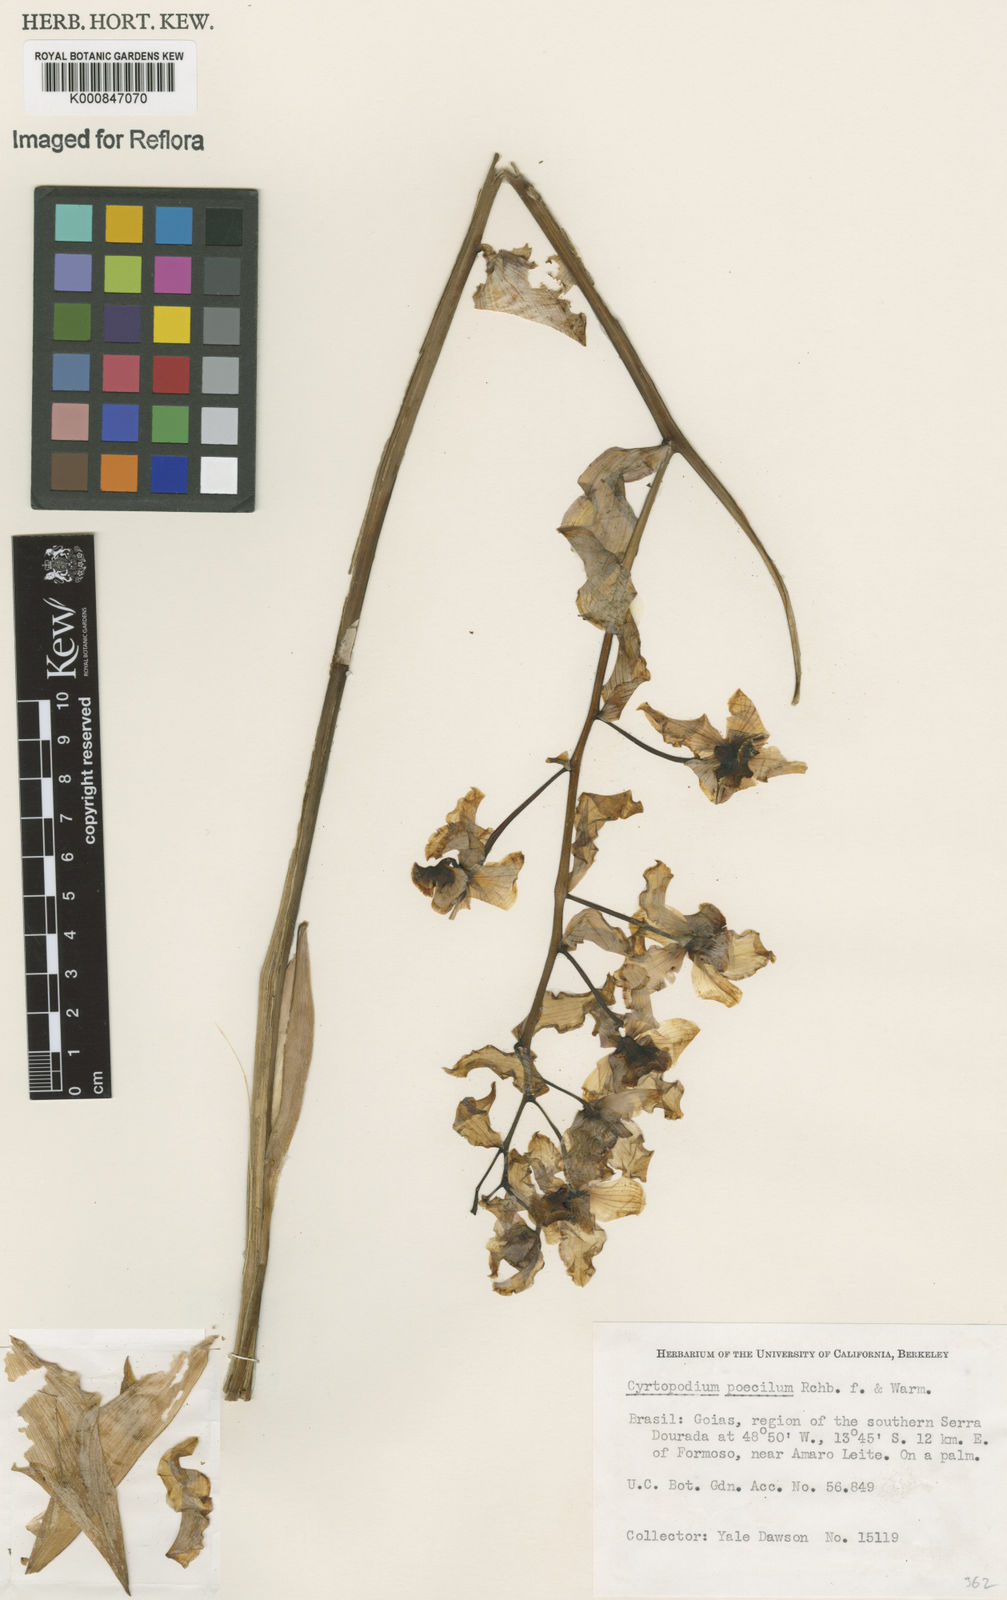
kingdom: Plantae
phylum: Tracheophyta
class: Liliopsida
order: Asparagales
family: Orchidaceae
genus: Cyrtopodium
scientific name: Cyrtopodium poecilum
